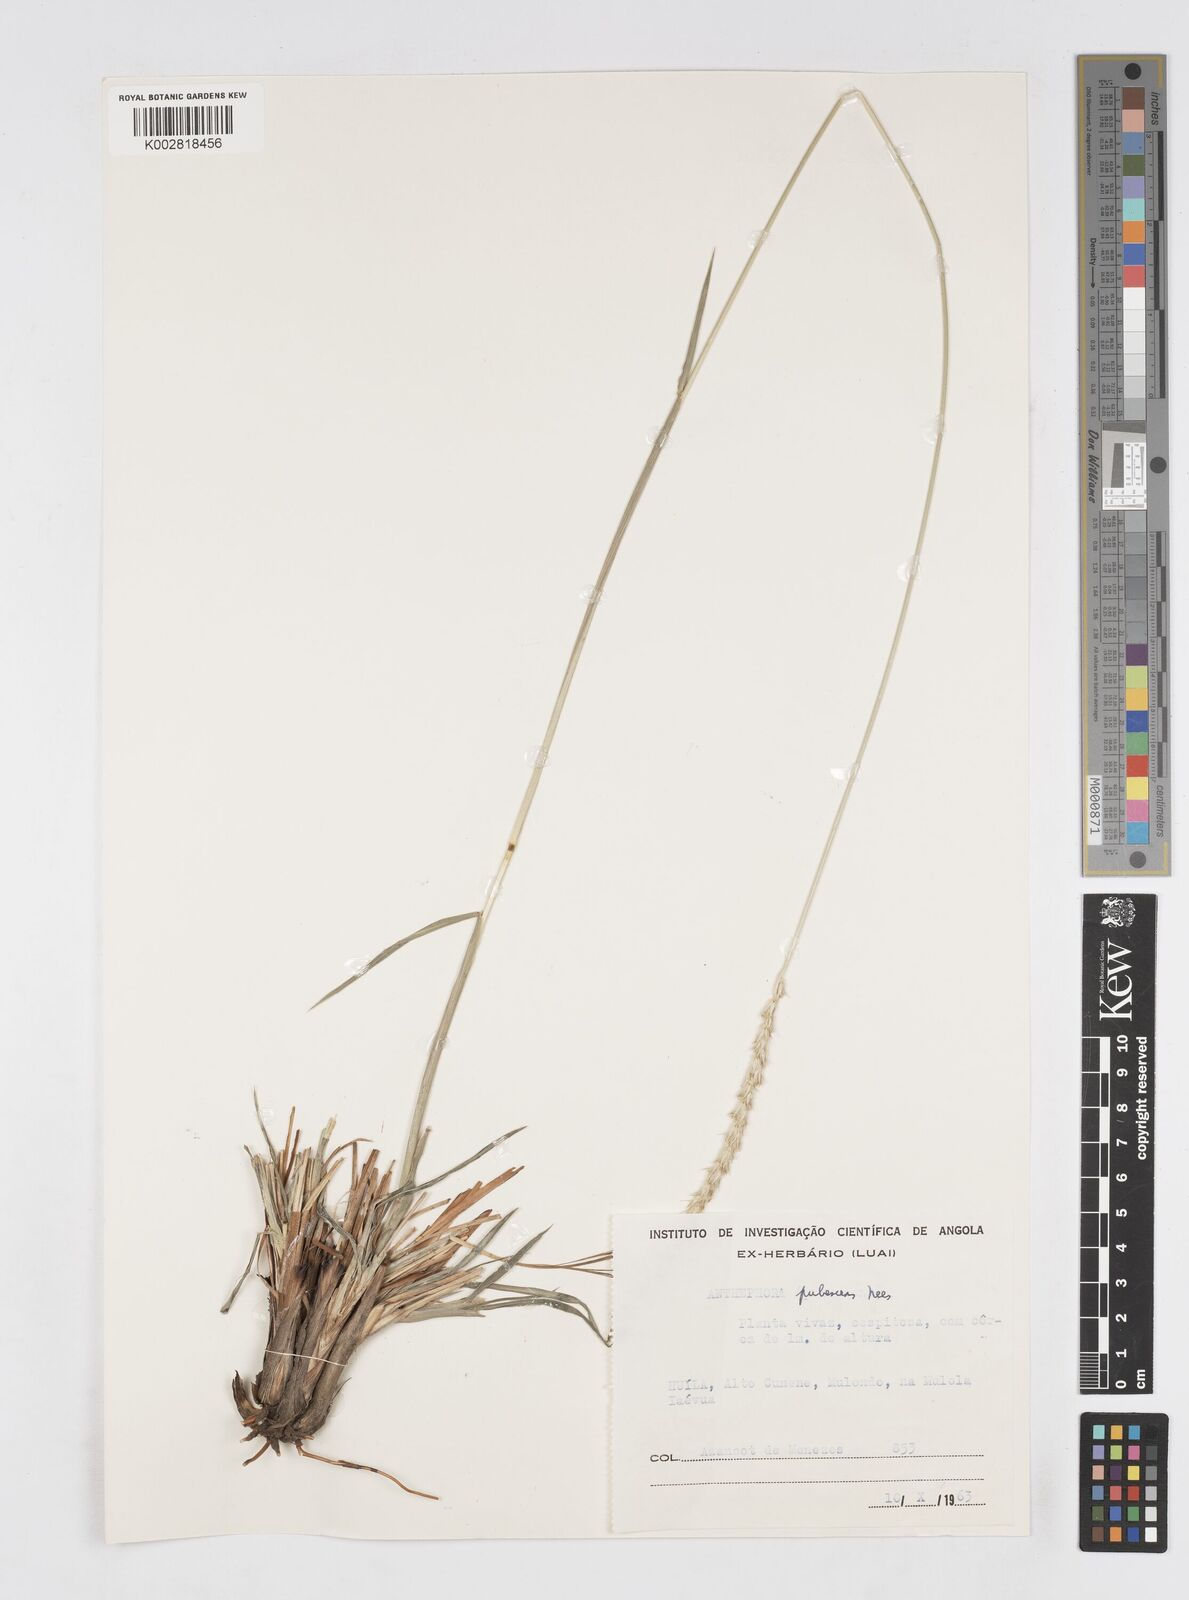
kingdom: Plantae
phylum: Tracheophyta
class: Liliopsida
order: Poales
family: Poaceae
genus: Anthephora
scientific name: Anthephora pubescens
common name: Wool grass
